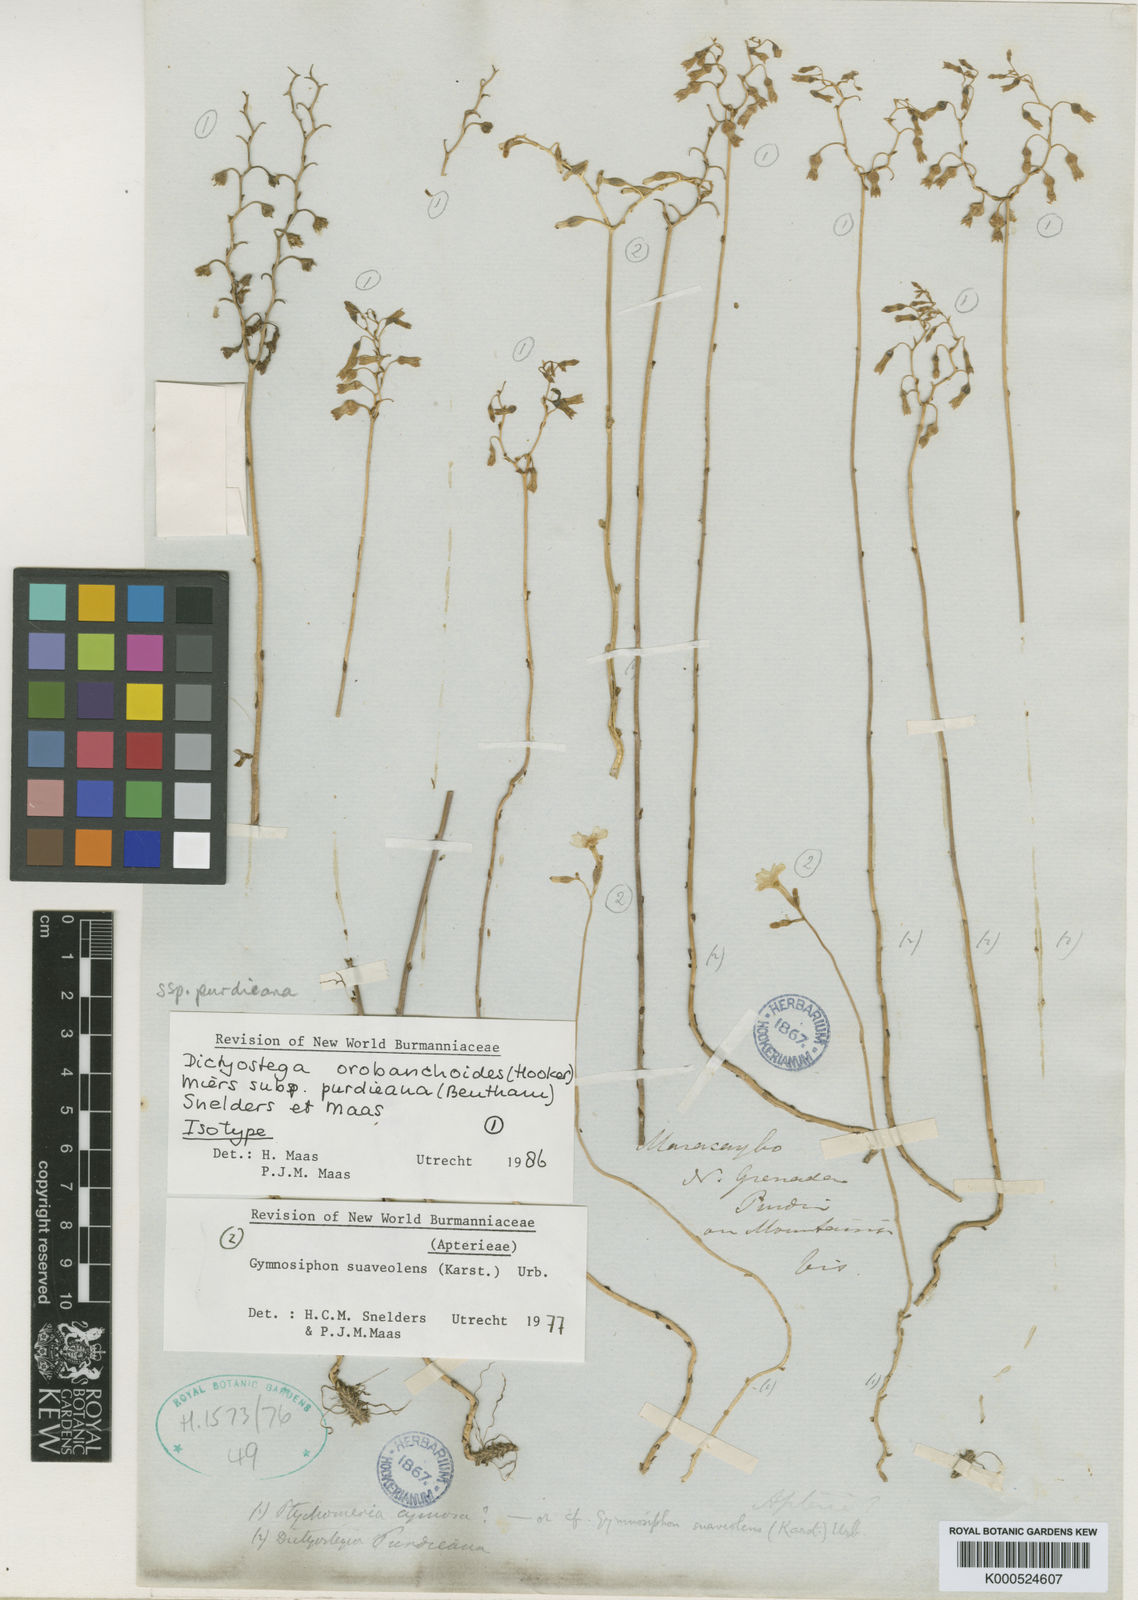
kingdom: Plantae
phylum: Tracheophyta
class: Liliopsida
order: Dioscoreales
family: Burmanniaceae
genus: Dictyostega
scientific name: Dictyostega orobanchoides
